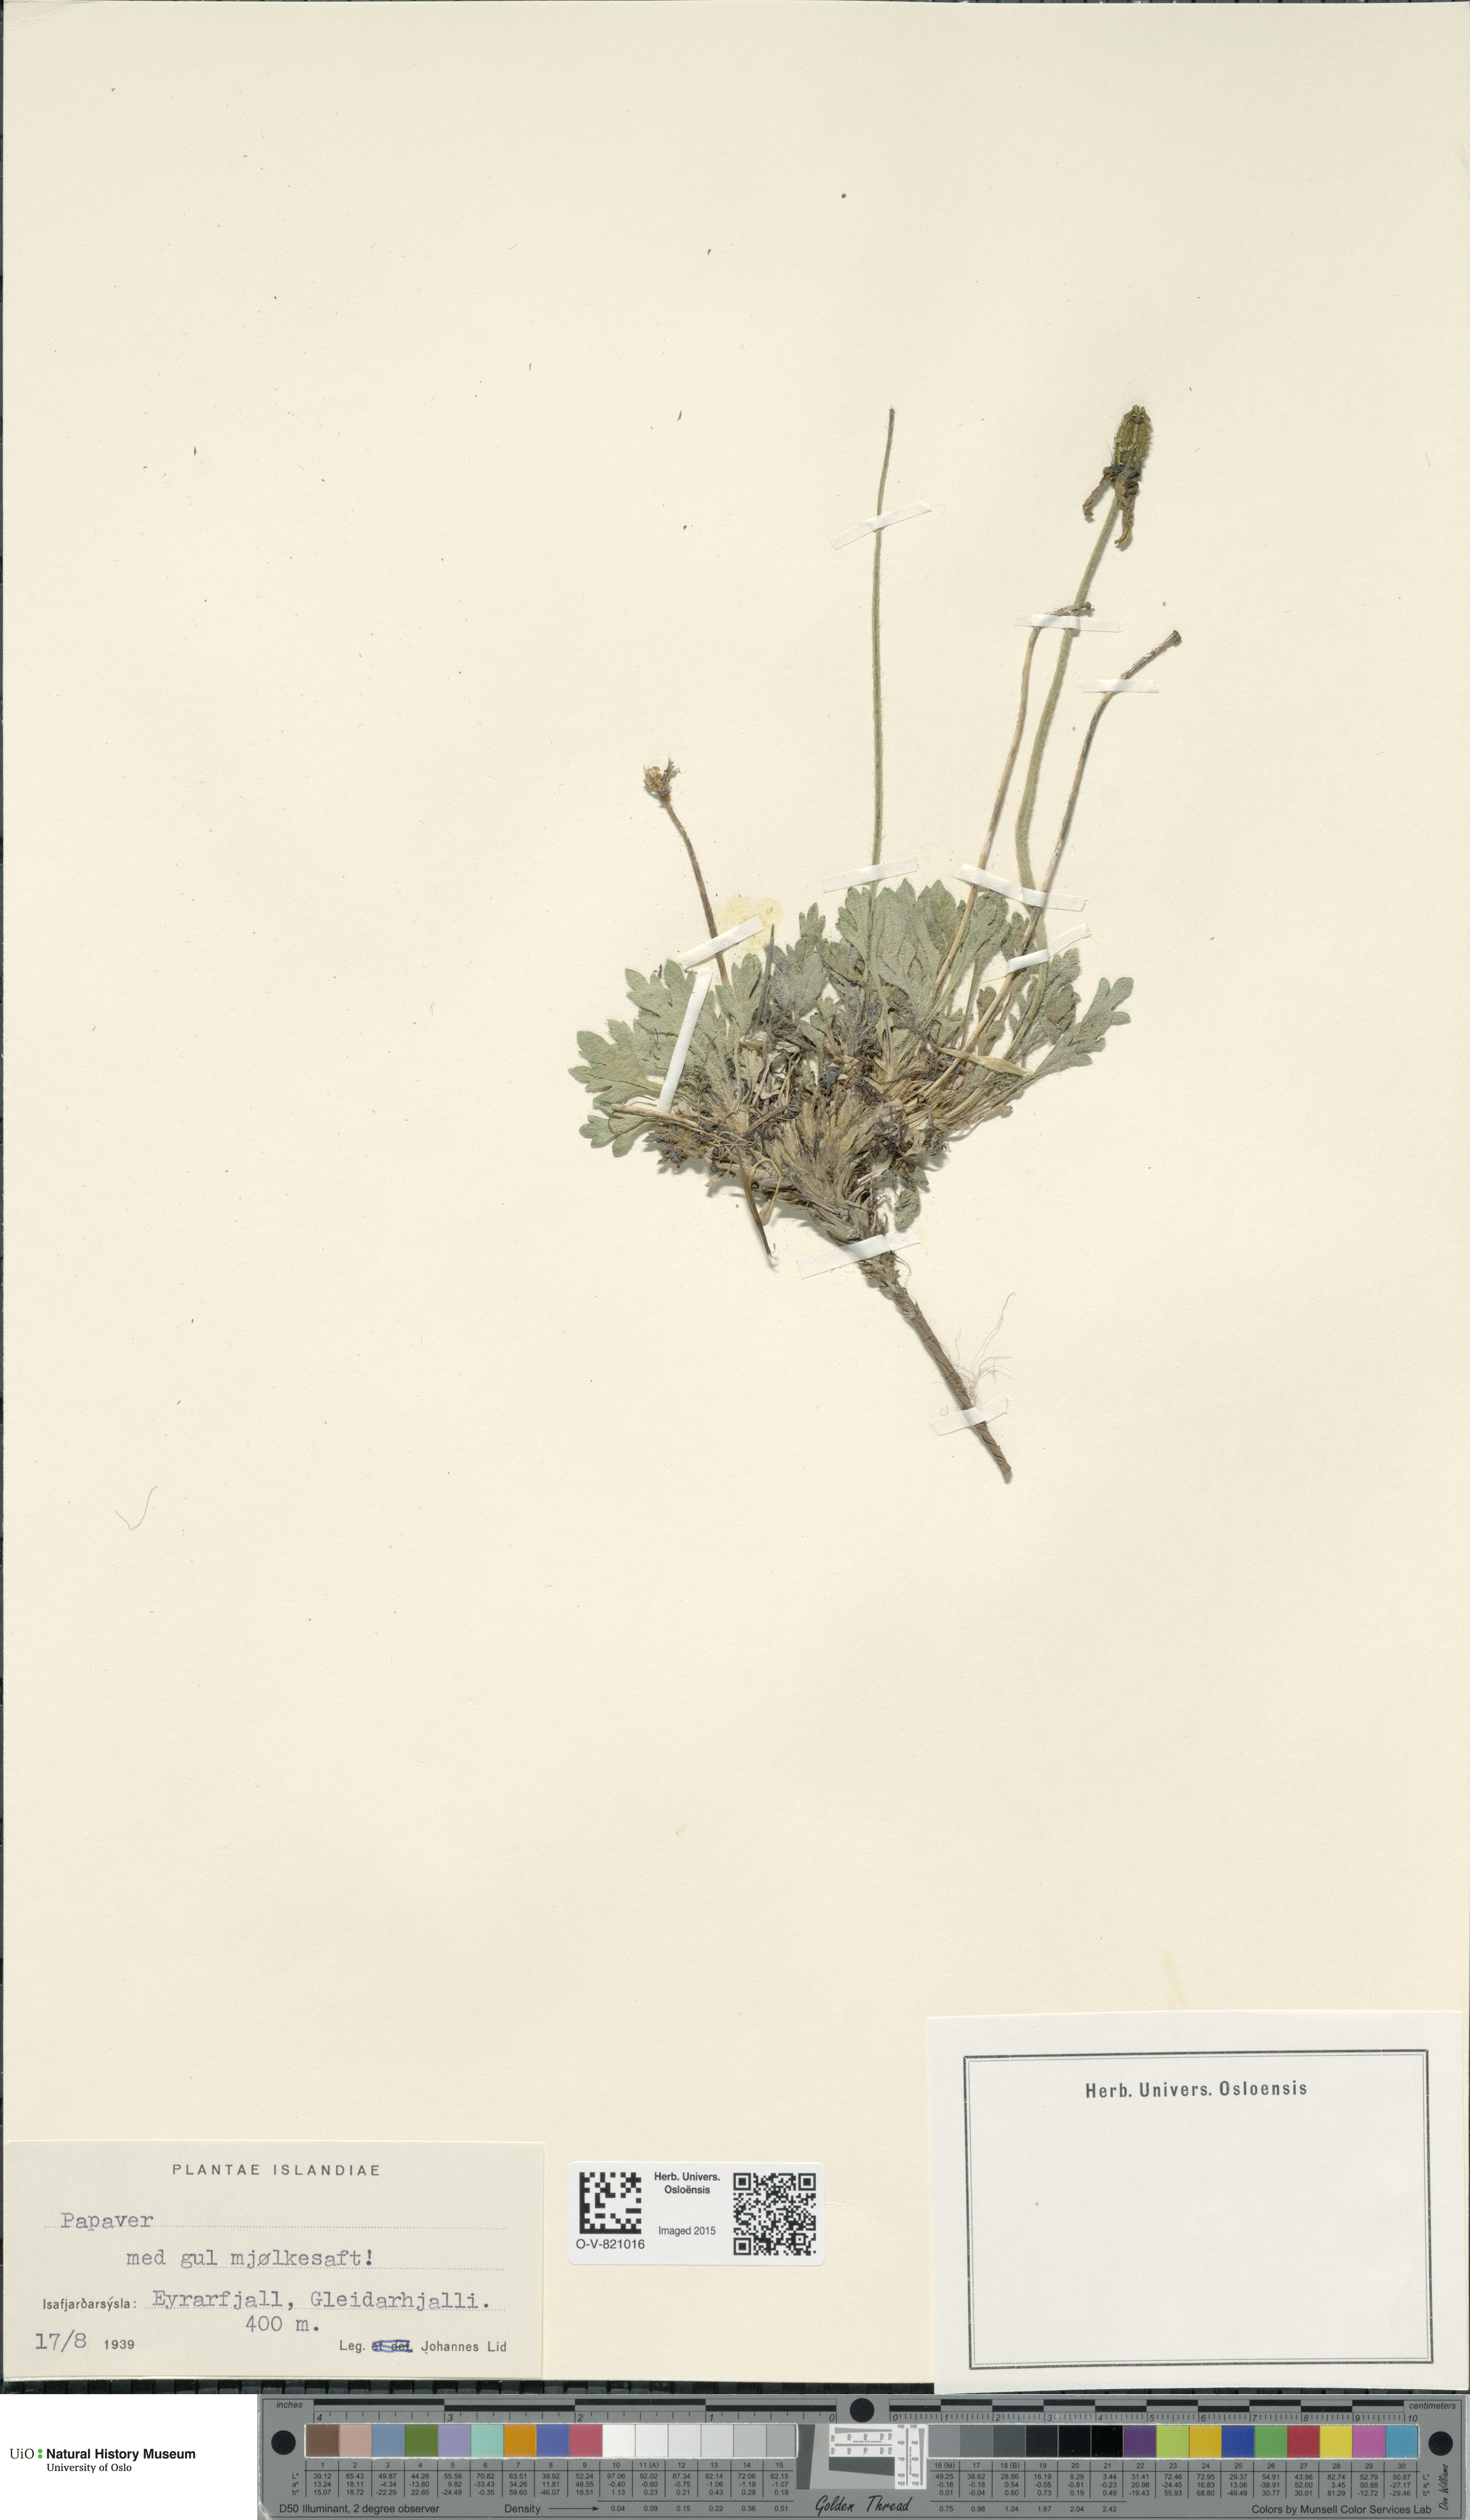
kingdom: Plantae
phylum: Tracheophyta
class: Magnoliopsida
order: Ranunculales
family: Papaveraceae
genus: Papaver
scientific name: Papaver radicatum
